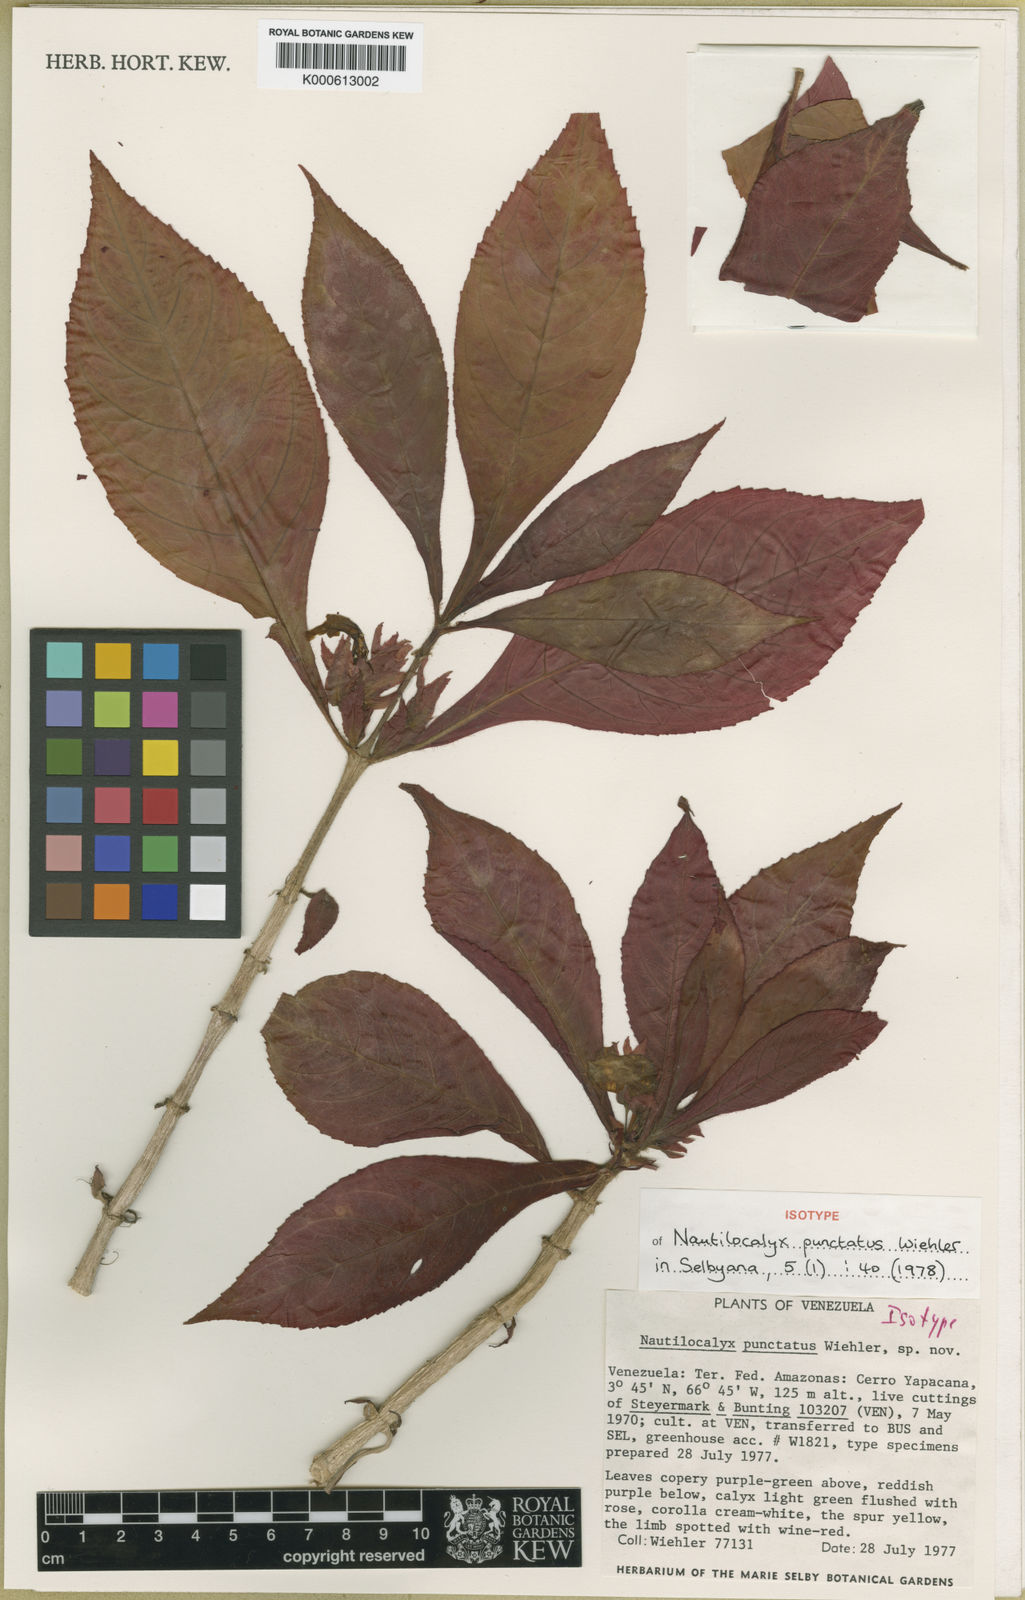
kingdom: Plantae
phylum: Tracheophyta
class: Magnoliopsida
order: Lamiales
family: Gesneriaceae
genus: Nautilocalyx
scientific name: Nautilocalyx punctatus
